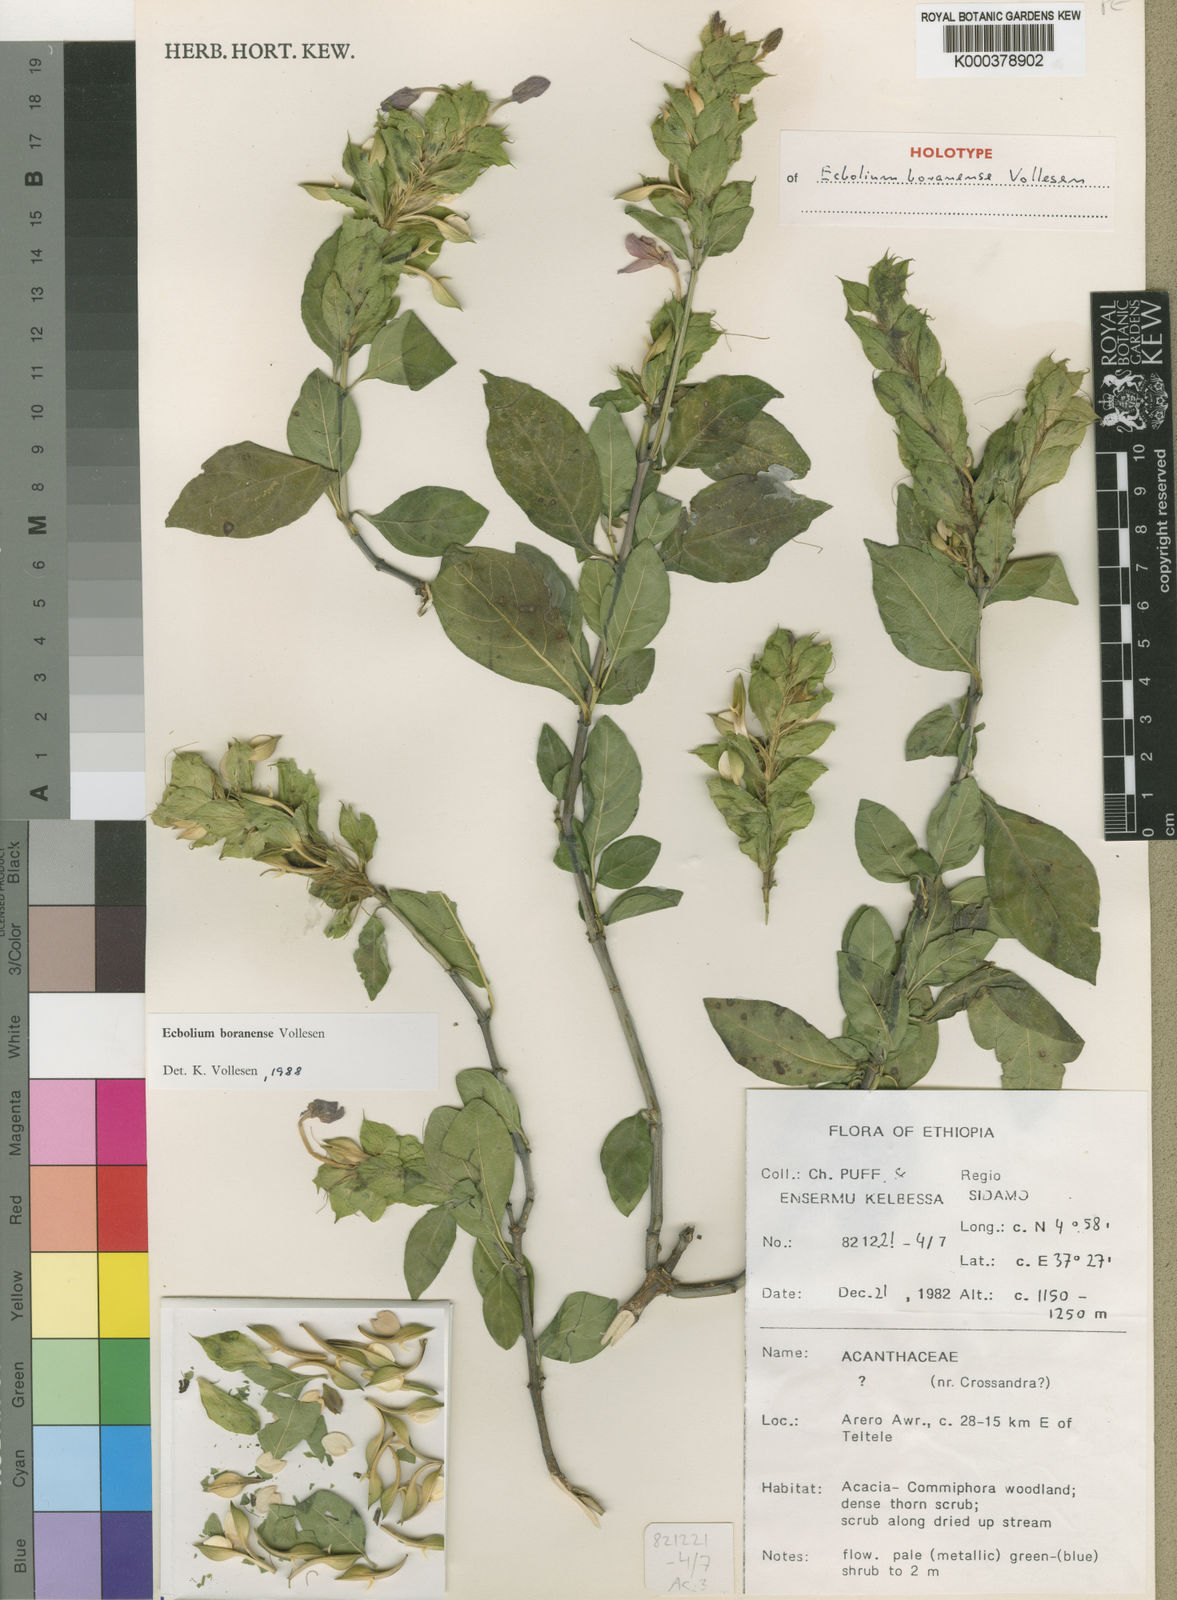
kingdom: Plantae
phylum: Tracheophyta
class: Magnoliopsida
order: Lamiales
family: Acanthaceae
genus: Ecbolium
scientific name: Ecbolium boranense
